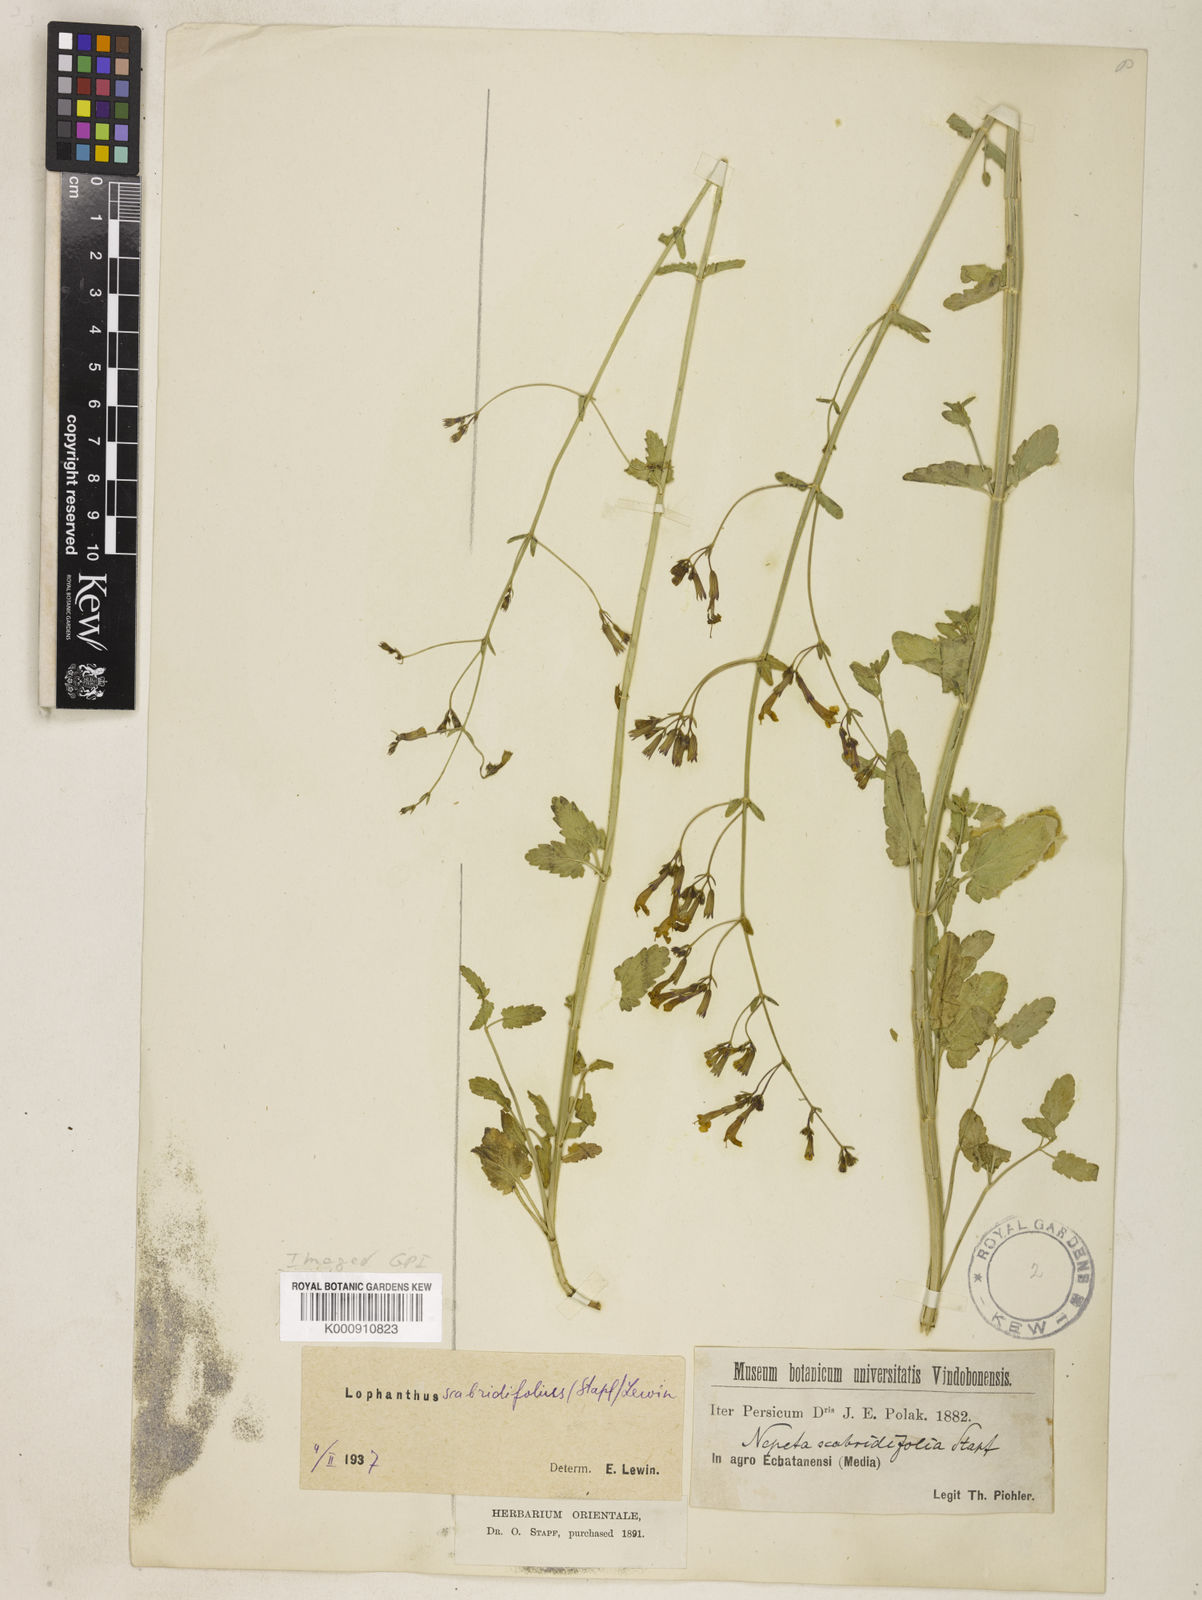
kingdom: Plantae
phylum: Tracheophyta
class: Magnoliopsida
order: Lamiales
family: Lamiaceae
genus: Nepeta
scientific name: Nepeta laxiflora
